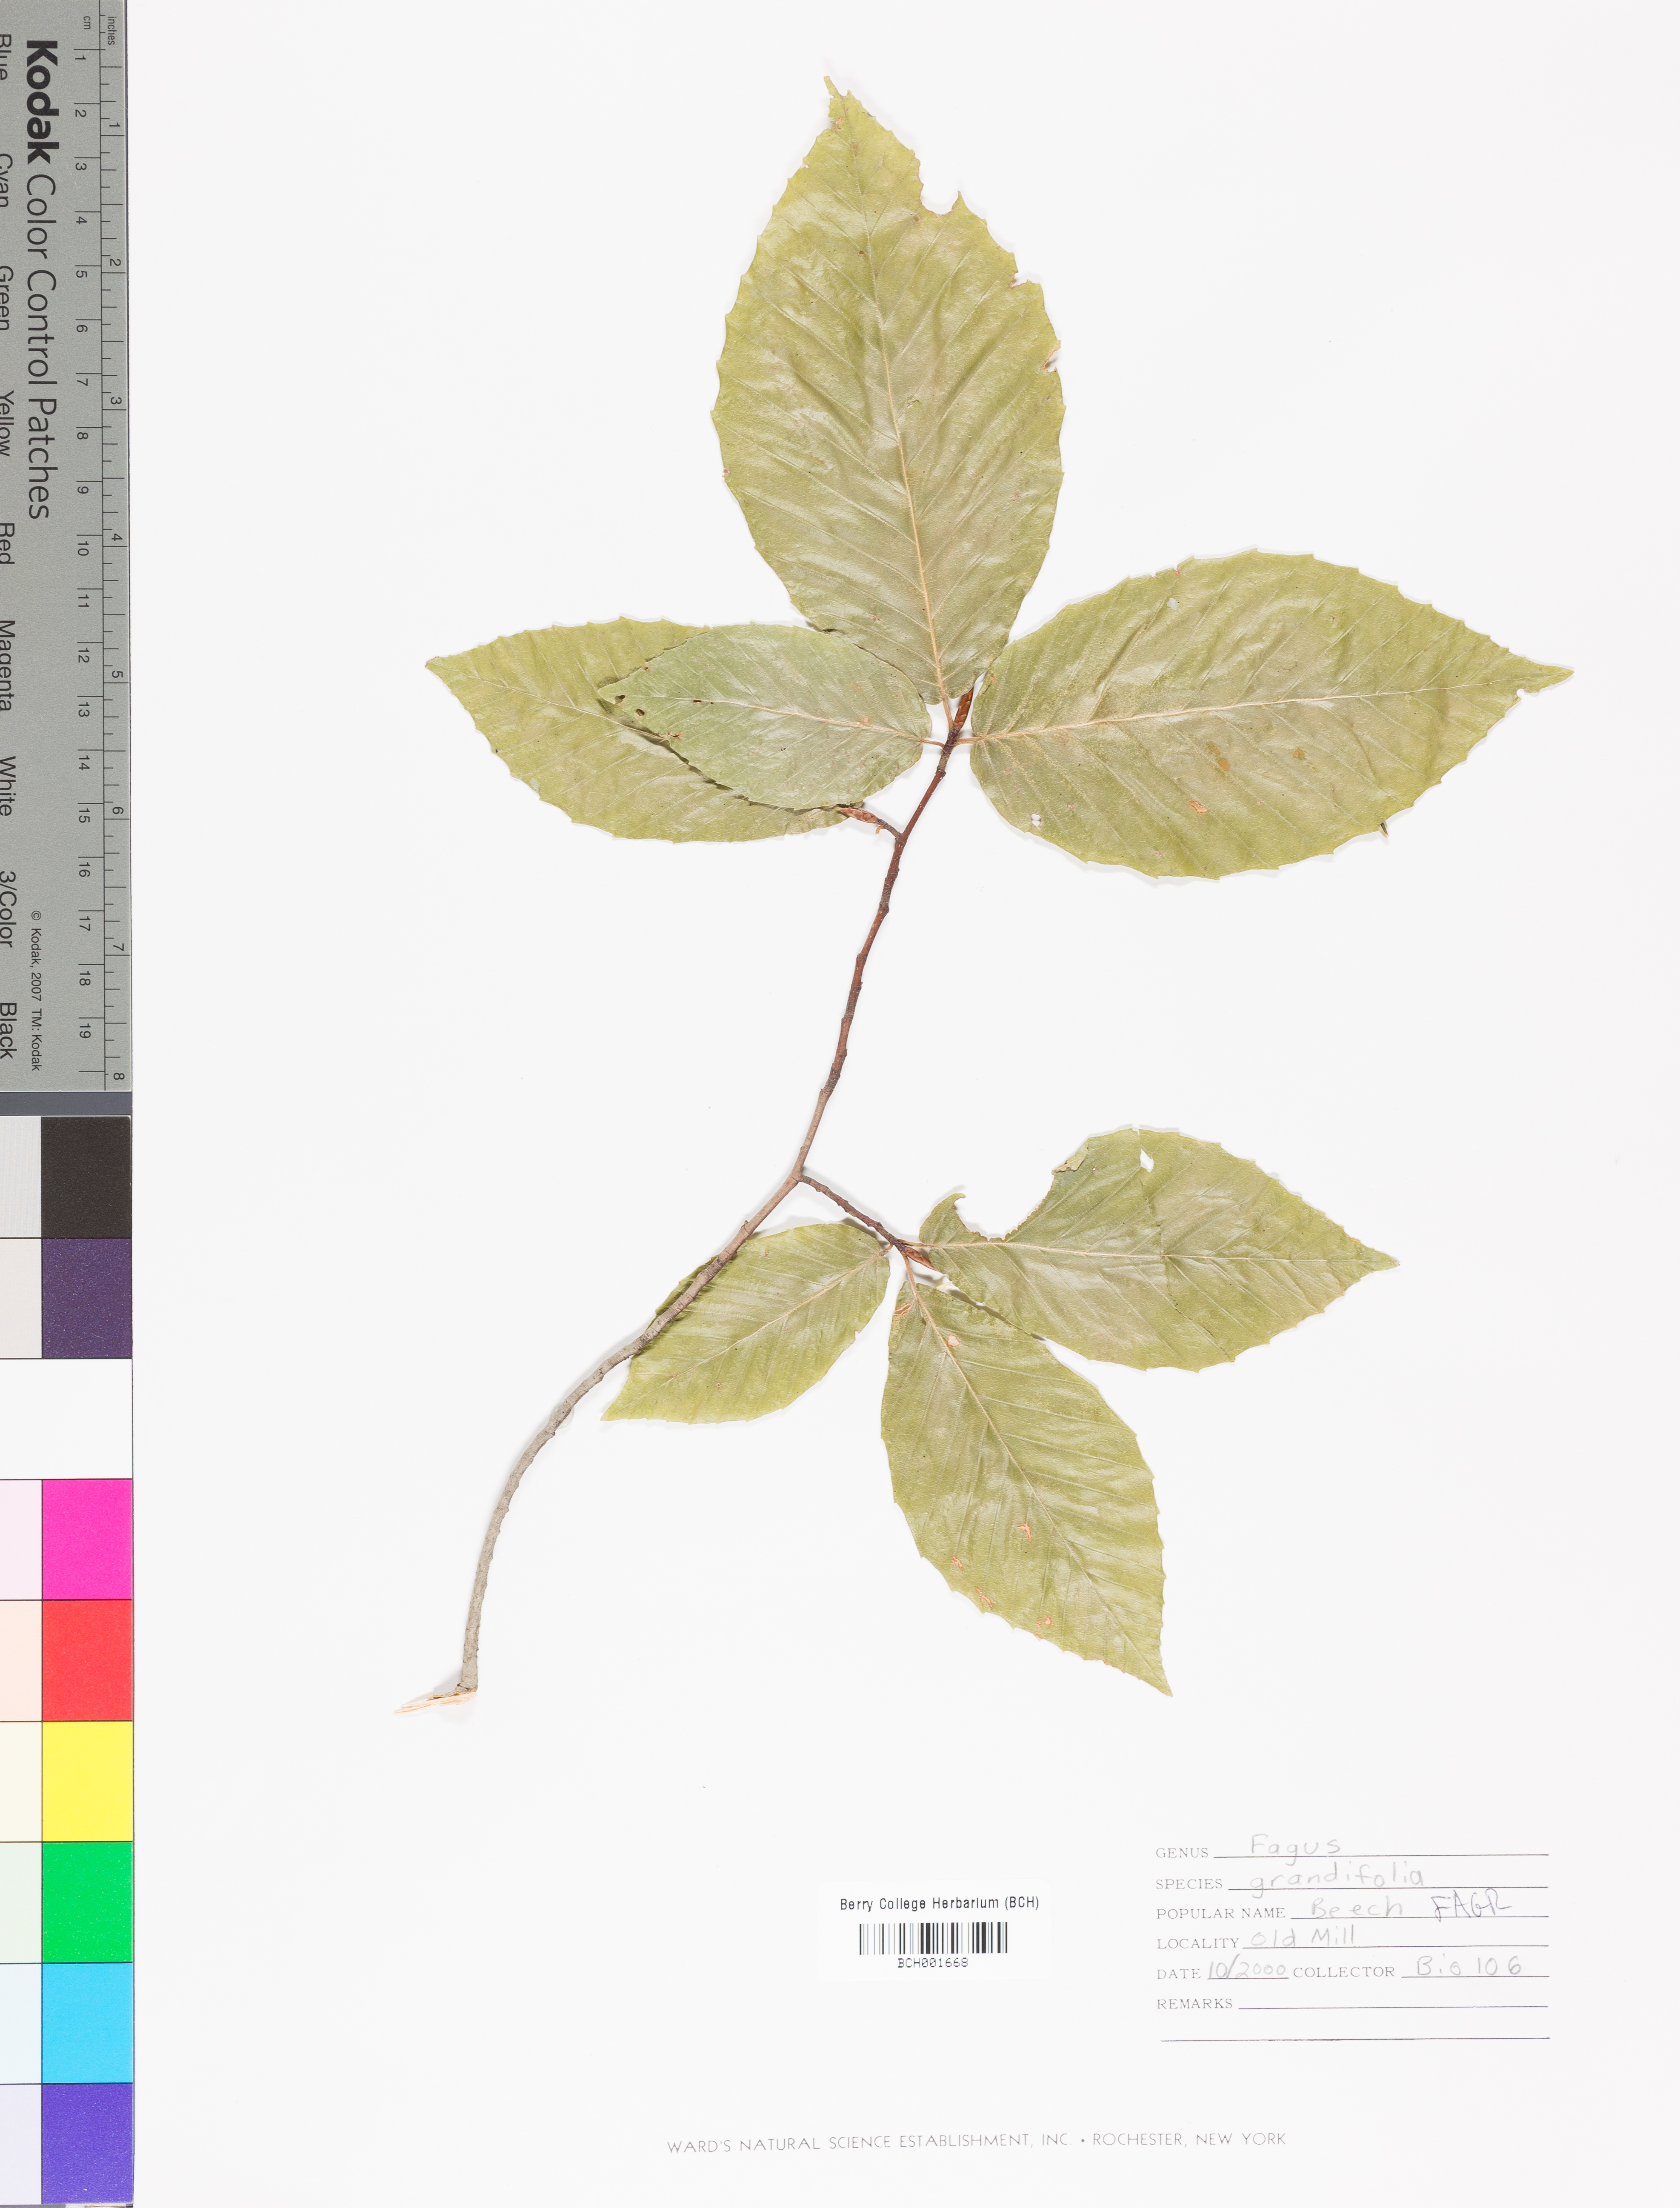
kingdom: Plantae
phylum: Tracheophyta
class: Magnoliopsida
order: Fagales
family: Fagaceae
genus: Fagus
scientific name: Fagus grandifolia
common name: American beech
